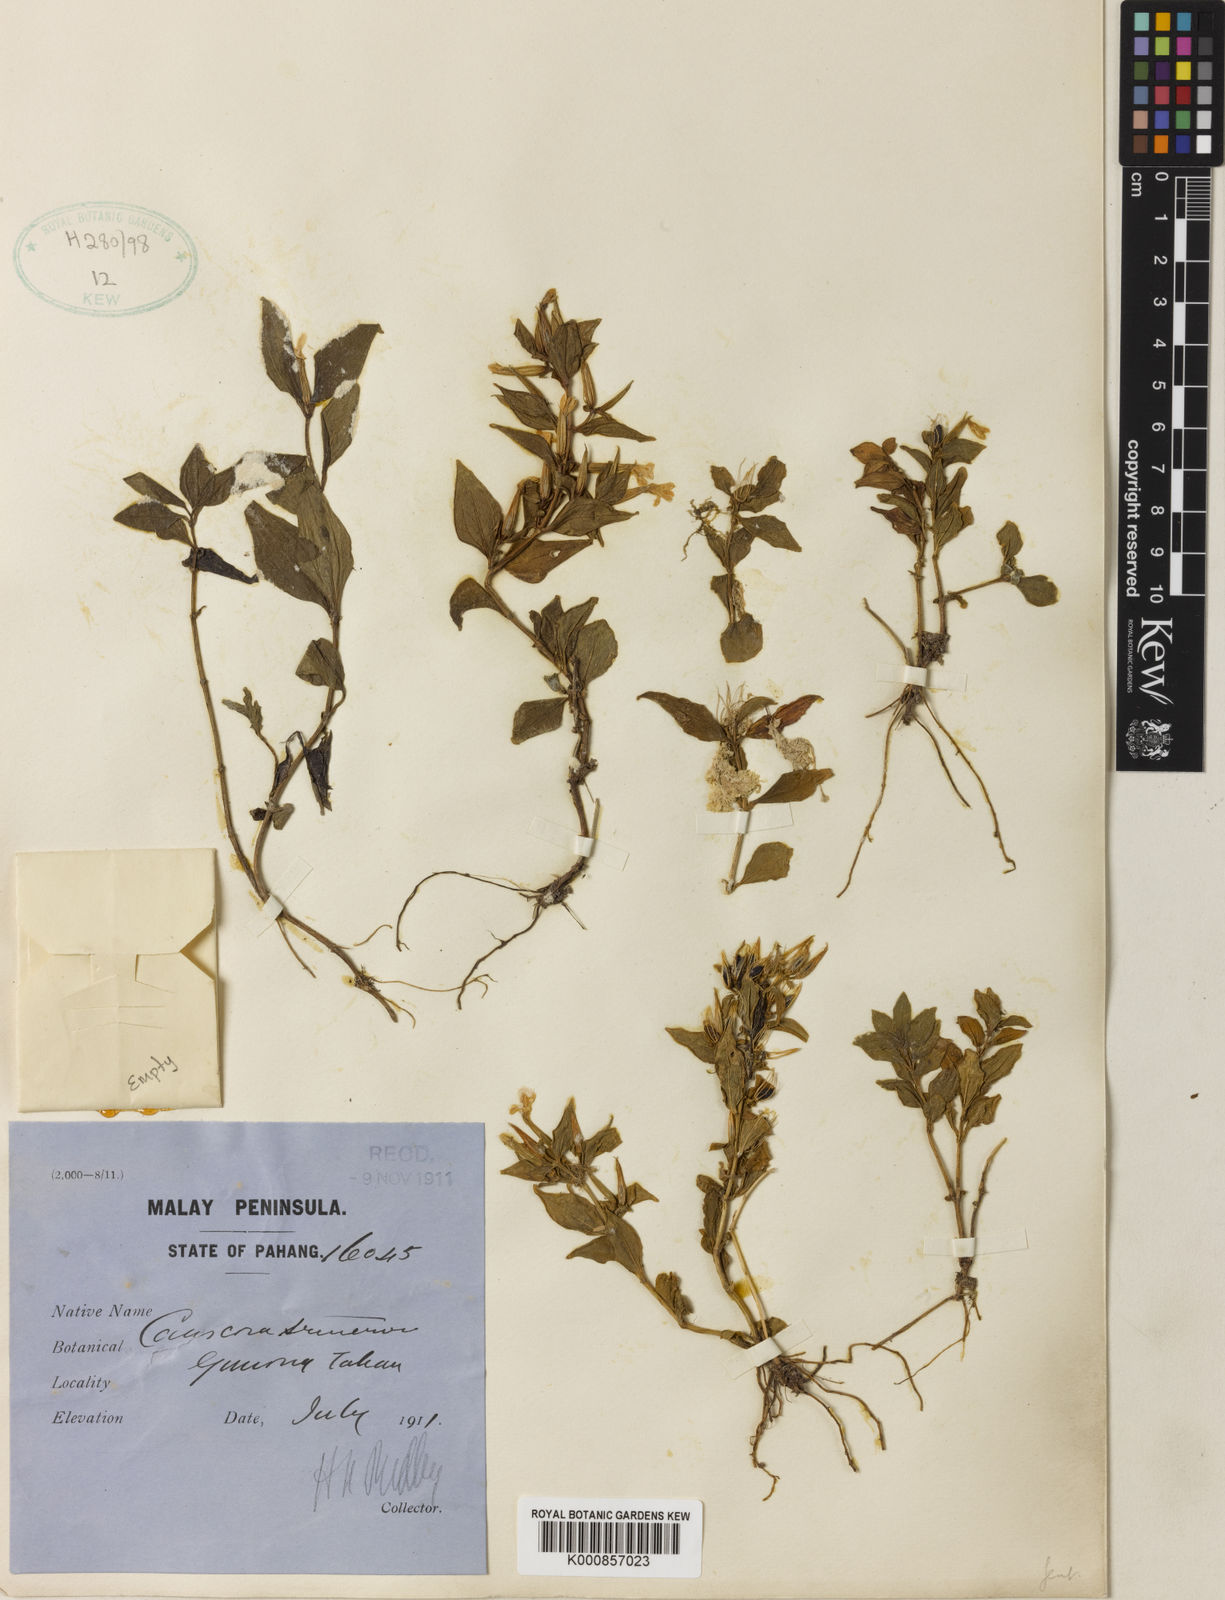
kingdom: Plantae
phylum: Tracheophyta
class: Magnoliopsida
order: Gentianales
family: Gentianaceae
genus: Canscora
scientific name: Canscora andrographioides
